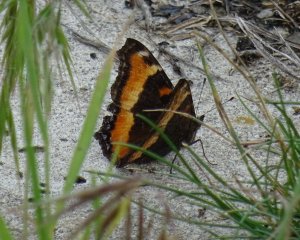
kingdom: Animalia
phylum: Arthropoda
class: Insecta
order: Lepidoptera
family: Nymphalidae
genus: Aglais
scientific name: Aglais milberti
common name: Milbert's Tortoiseshell
